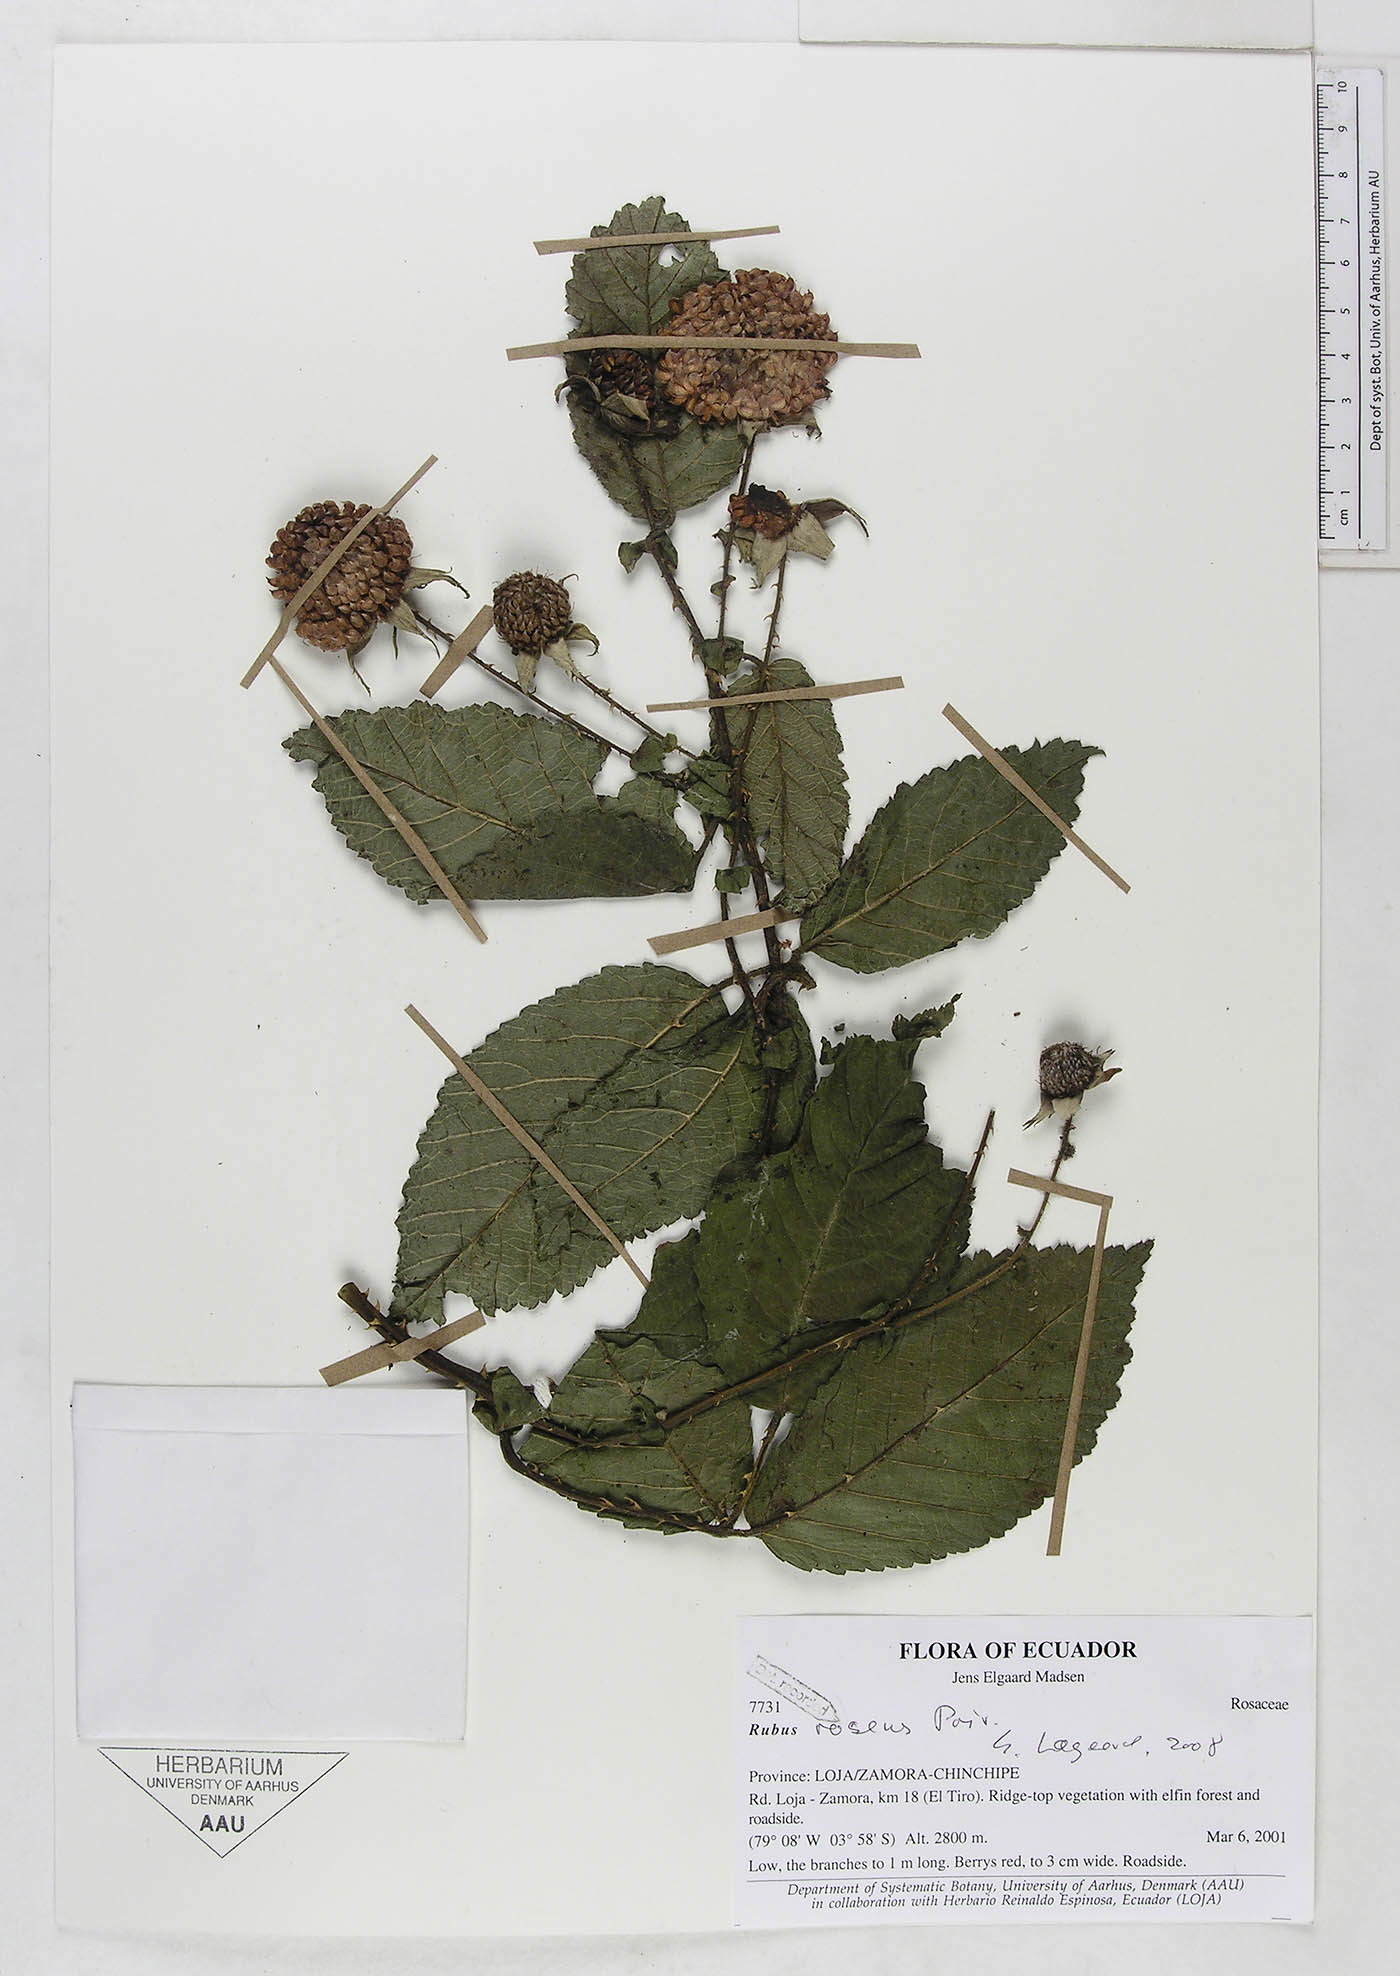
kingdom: Plantae
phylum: Tracheophyta
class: Magnoliopsida
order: Rosales
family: Rosaceae
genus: Rubus
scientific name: Rubus roseus
